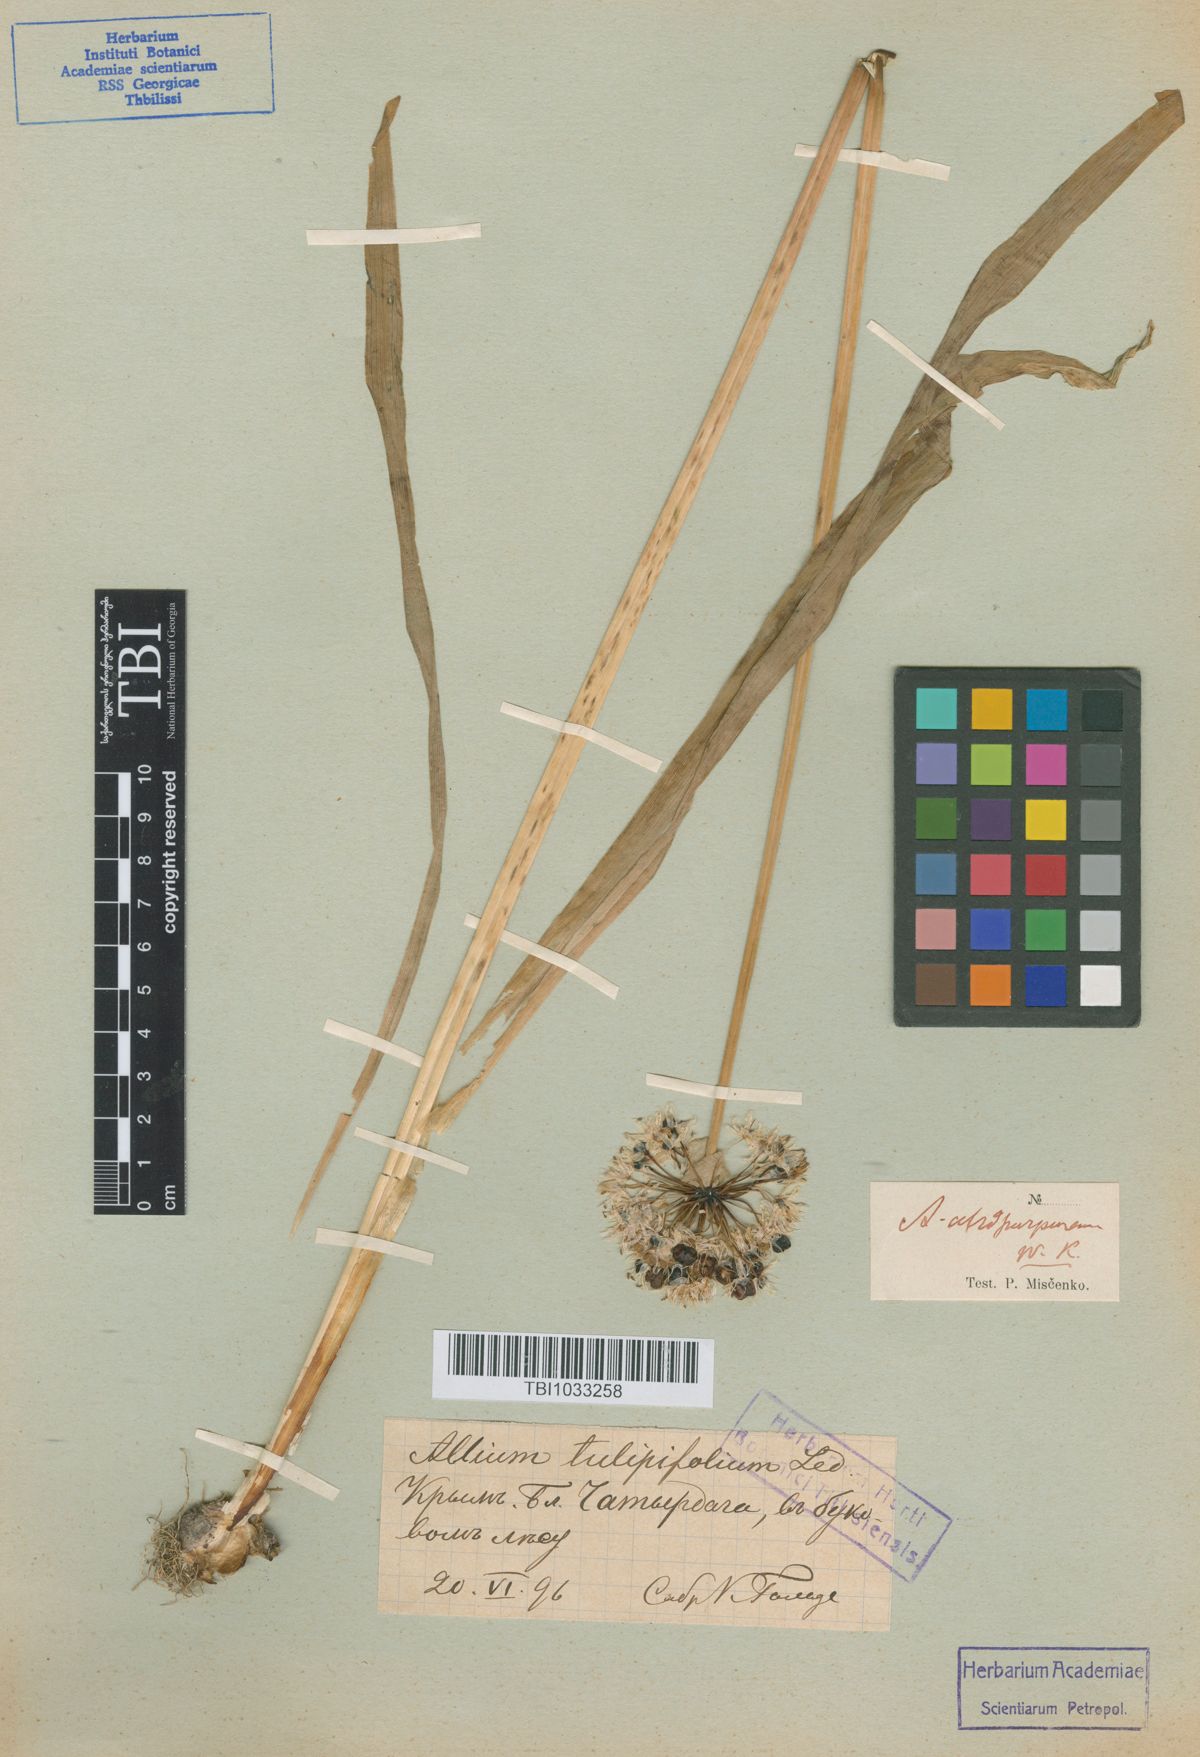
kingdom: Plantae
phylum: Tracheophyta
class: Liliopsida
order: Asparagales
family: Amaryllidaceae
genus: Allium
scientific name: Allium decipiens
